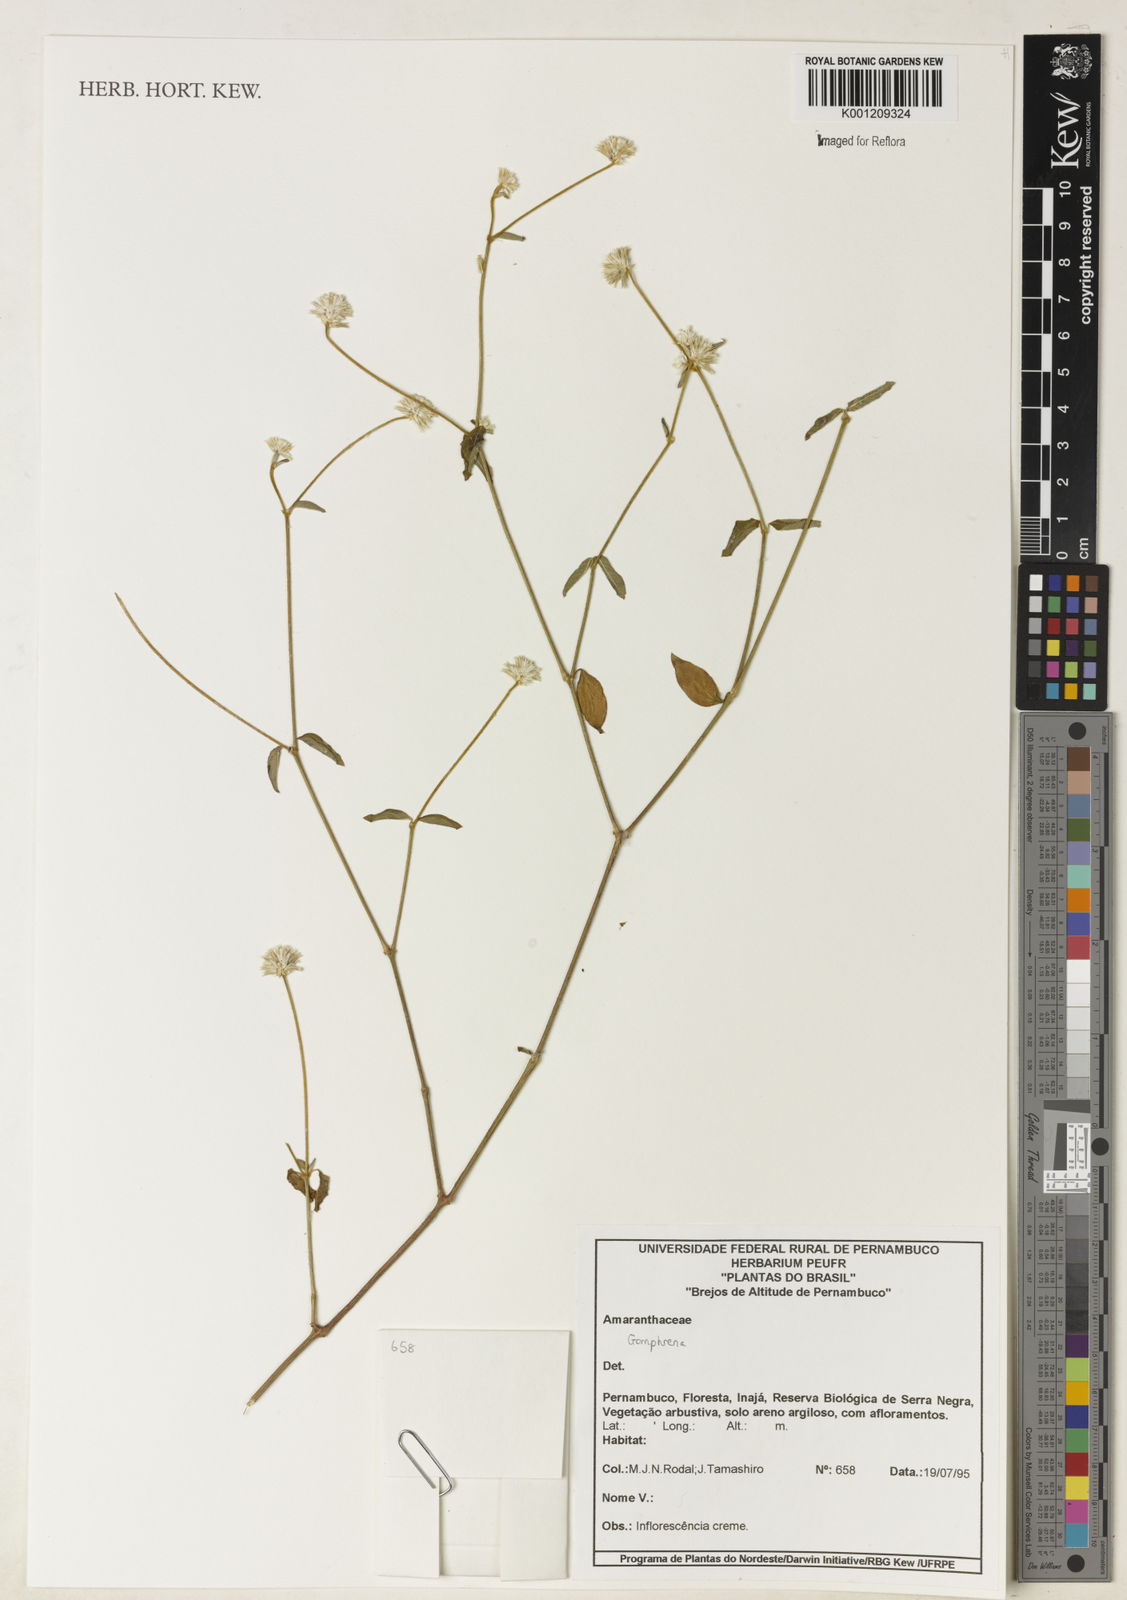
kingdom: Plantae
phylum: Tracheophyta
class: Magnoliopsida
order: Caryophyllales
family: Amaranthaceae
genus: Gomphrena
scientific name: Gomphrena
